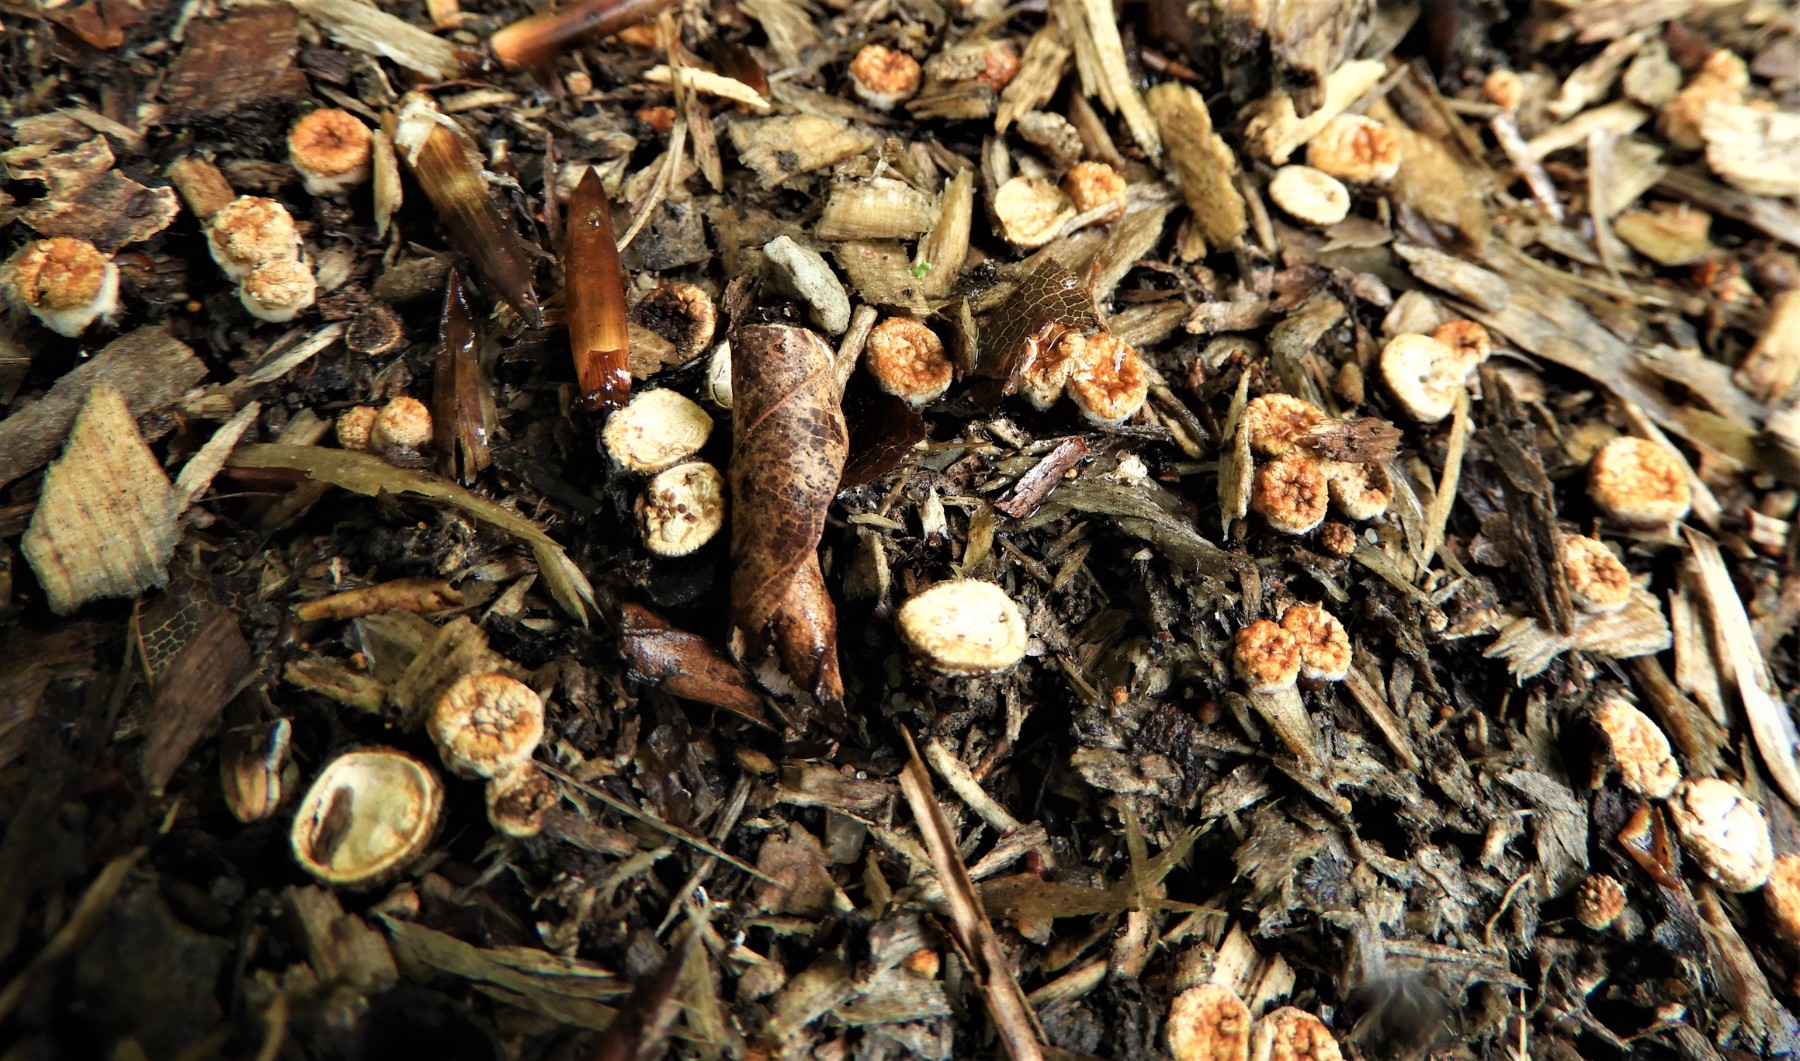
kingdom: Fungi
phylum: Basidiomycota
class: Agaricomycetes
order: Agaricales
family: Nidulariaceae
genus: Crucibulum
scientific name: Crucibulum crucibuliforme
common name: krukkesvamp
